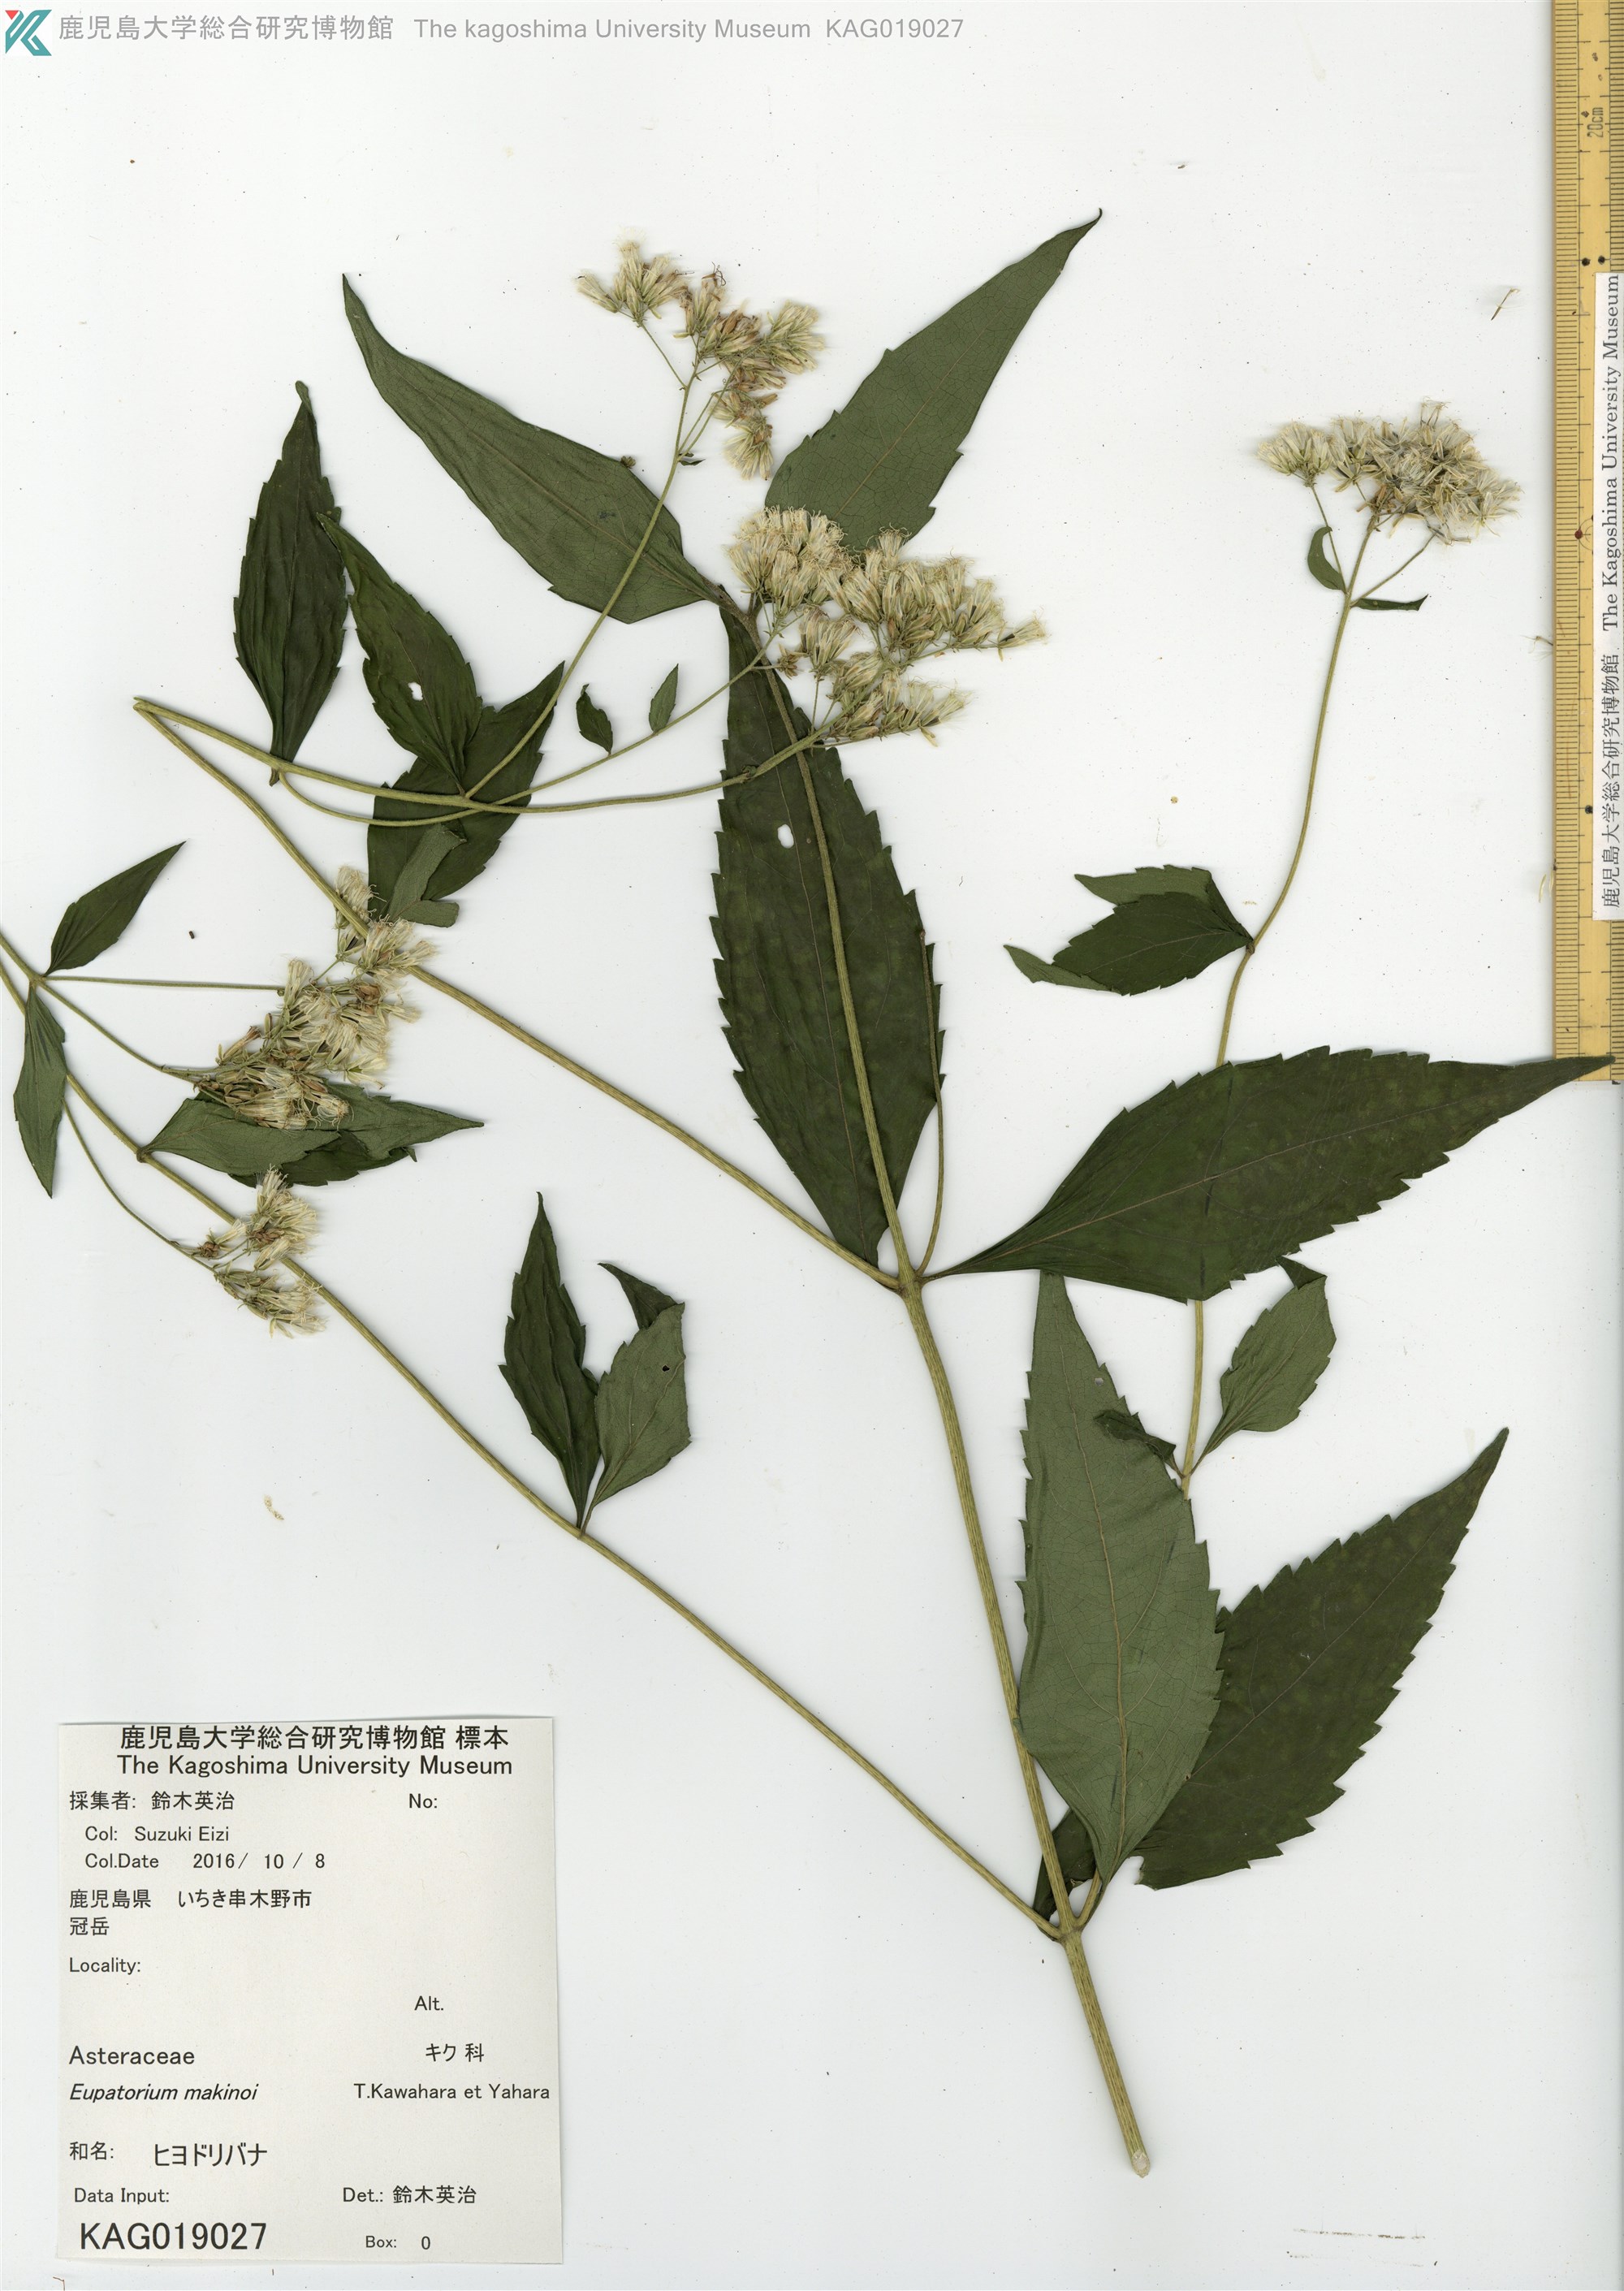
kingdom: Plantae
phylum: Tracheophyta
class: Magnoliopsida
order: Asterales
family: Asteraceae
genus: Eupatorium
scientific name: Eupatorium chinense
